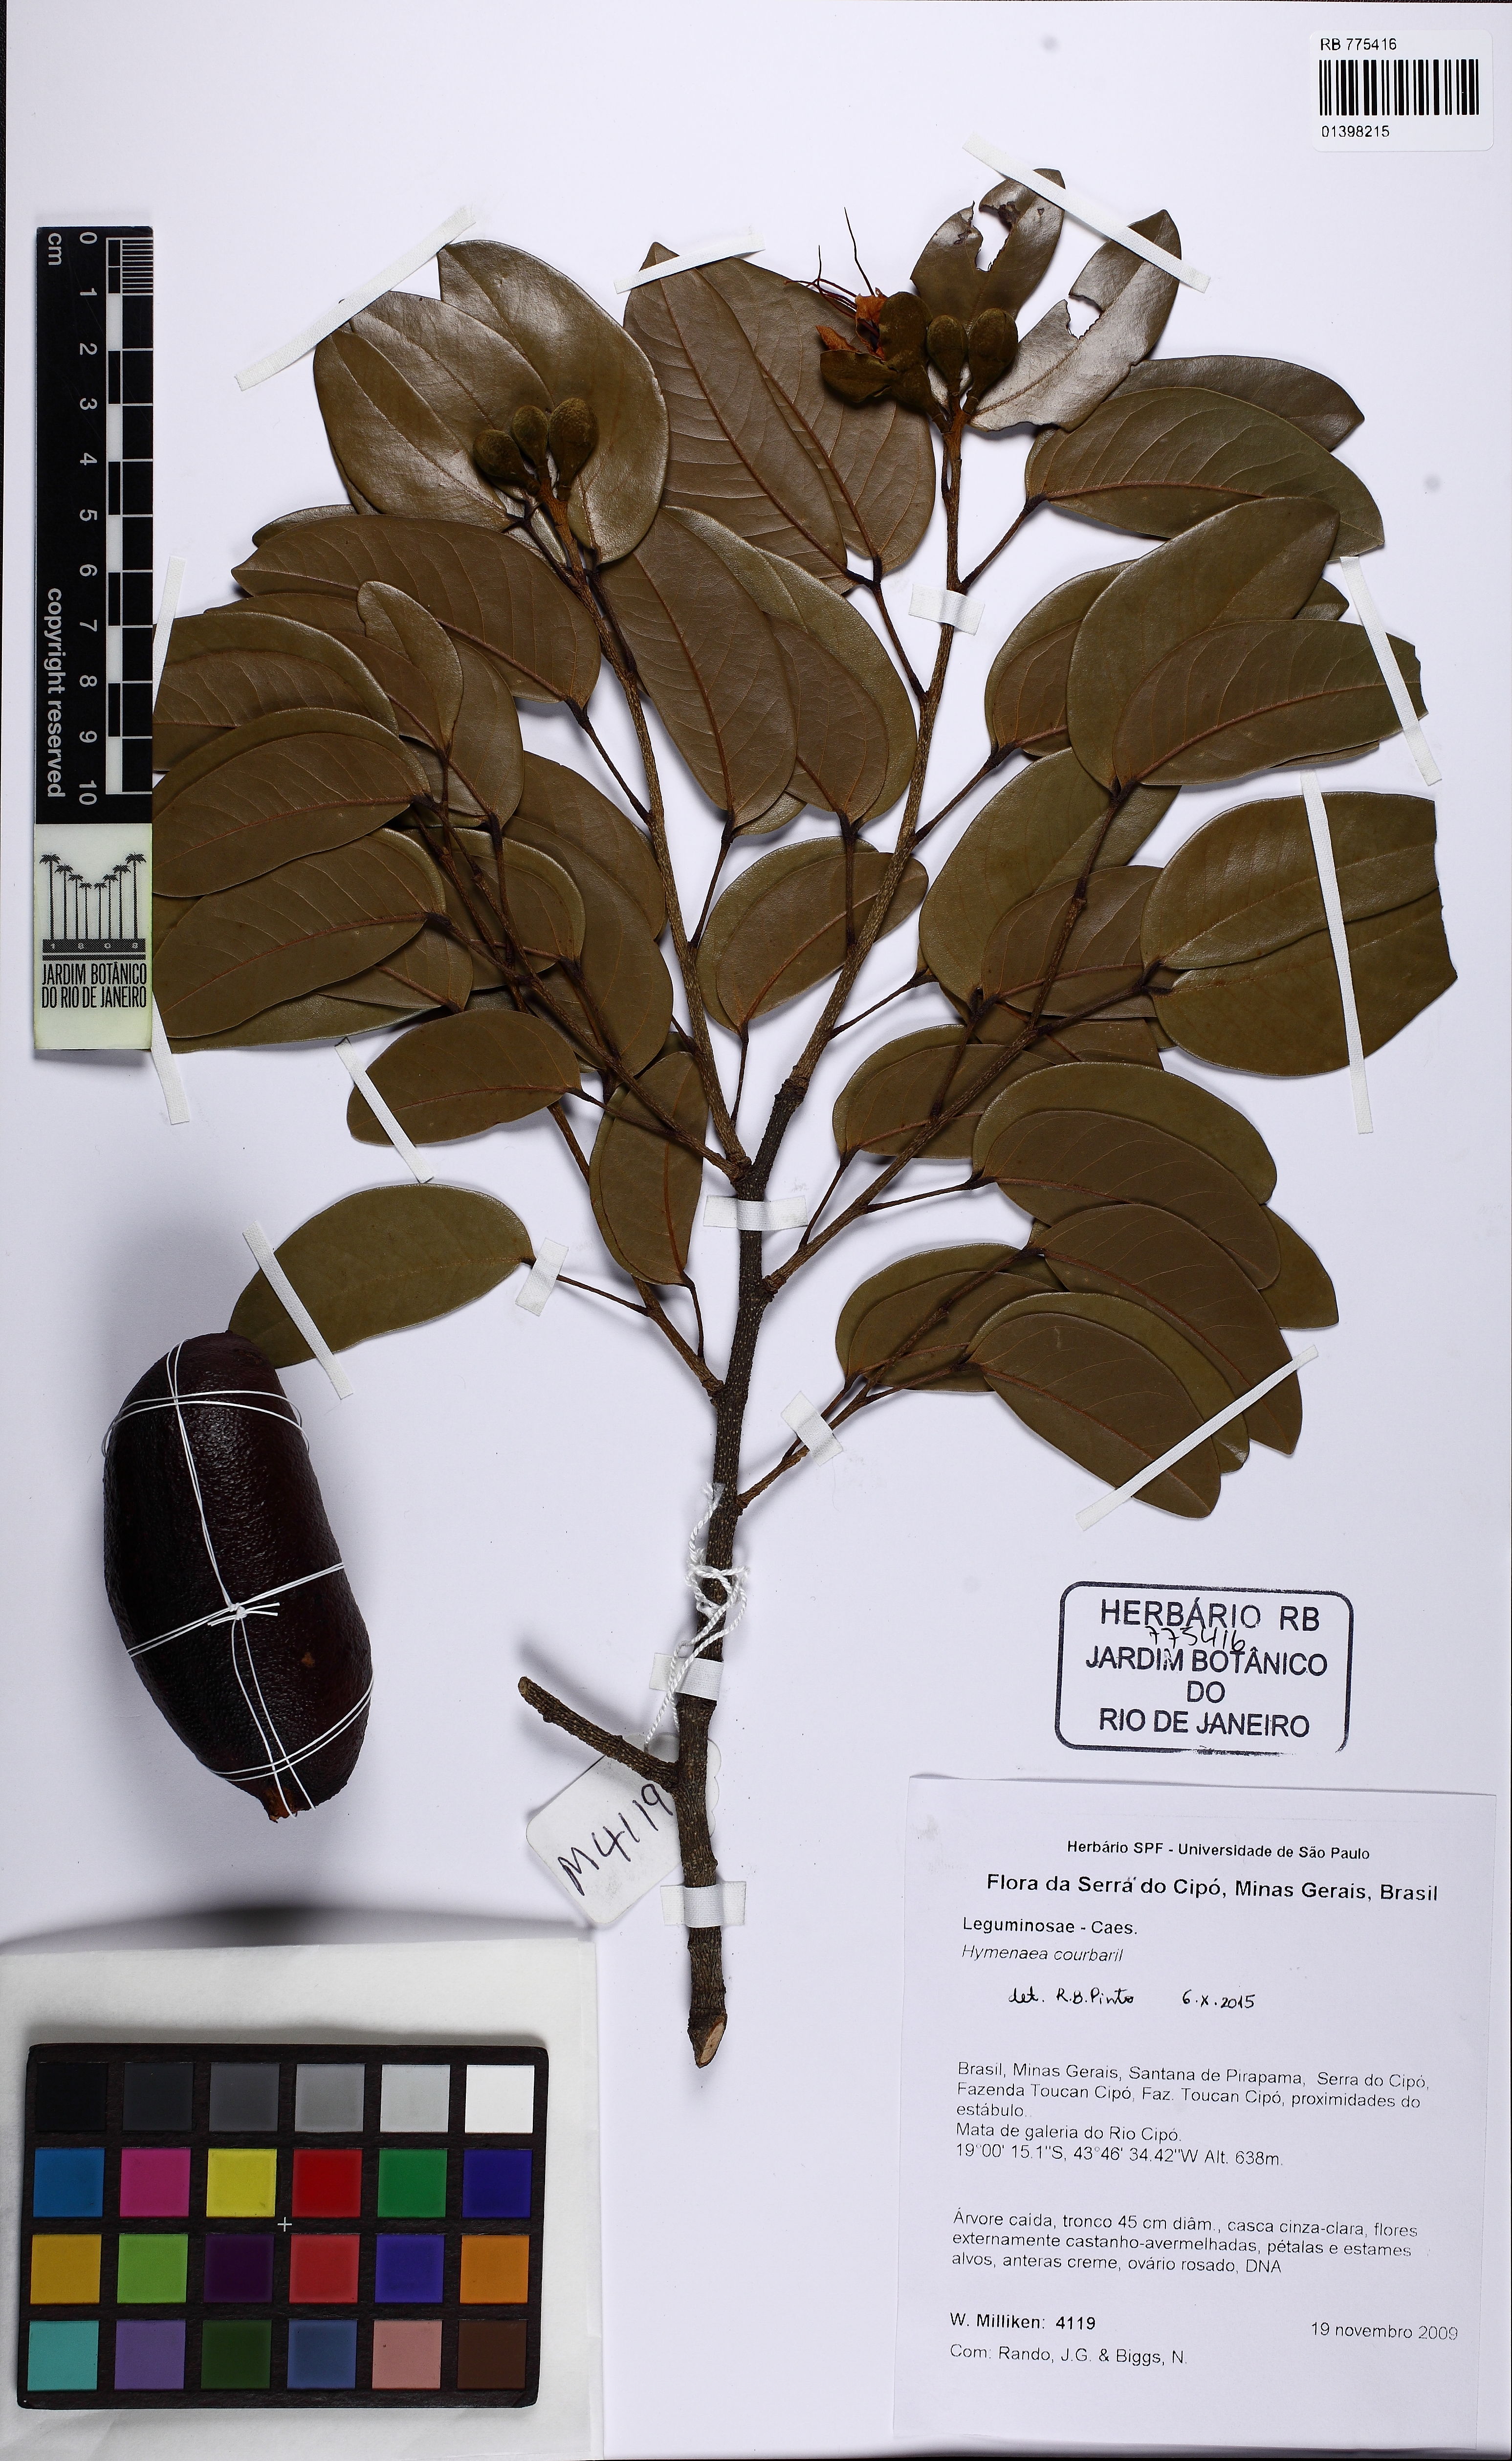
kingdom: Plantae
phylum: Tracheophyta
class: Magnoliopsida
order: Fabales
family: Fabaceae
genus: Hymenaea
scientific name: Hymenaea courbaril
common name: Brazilian copal
